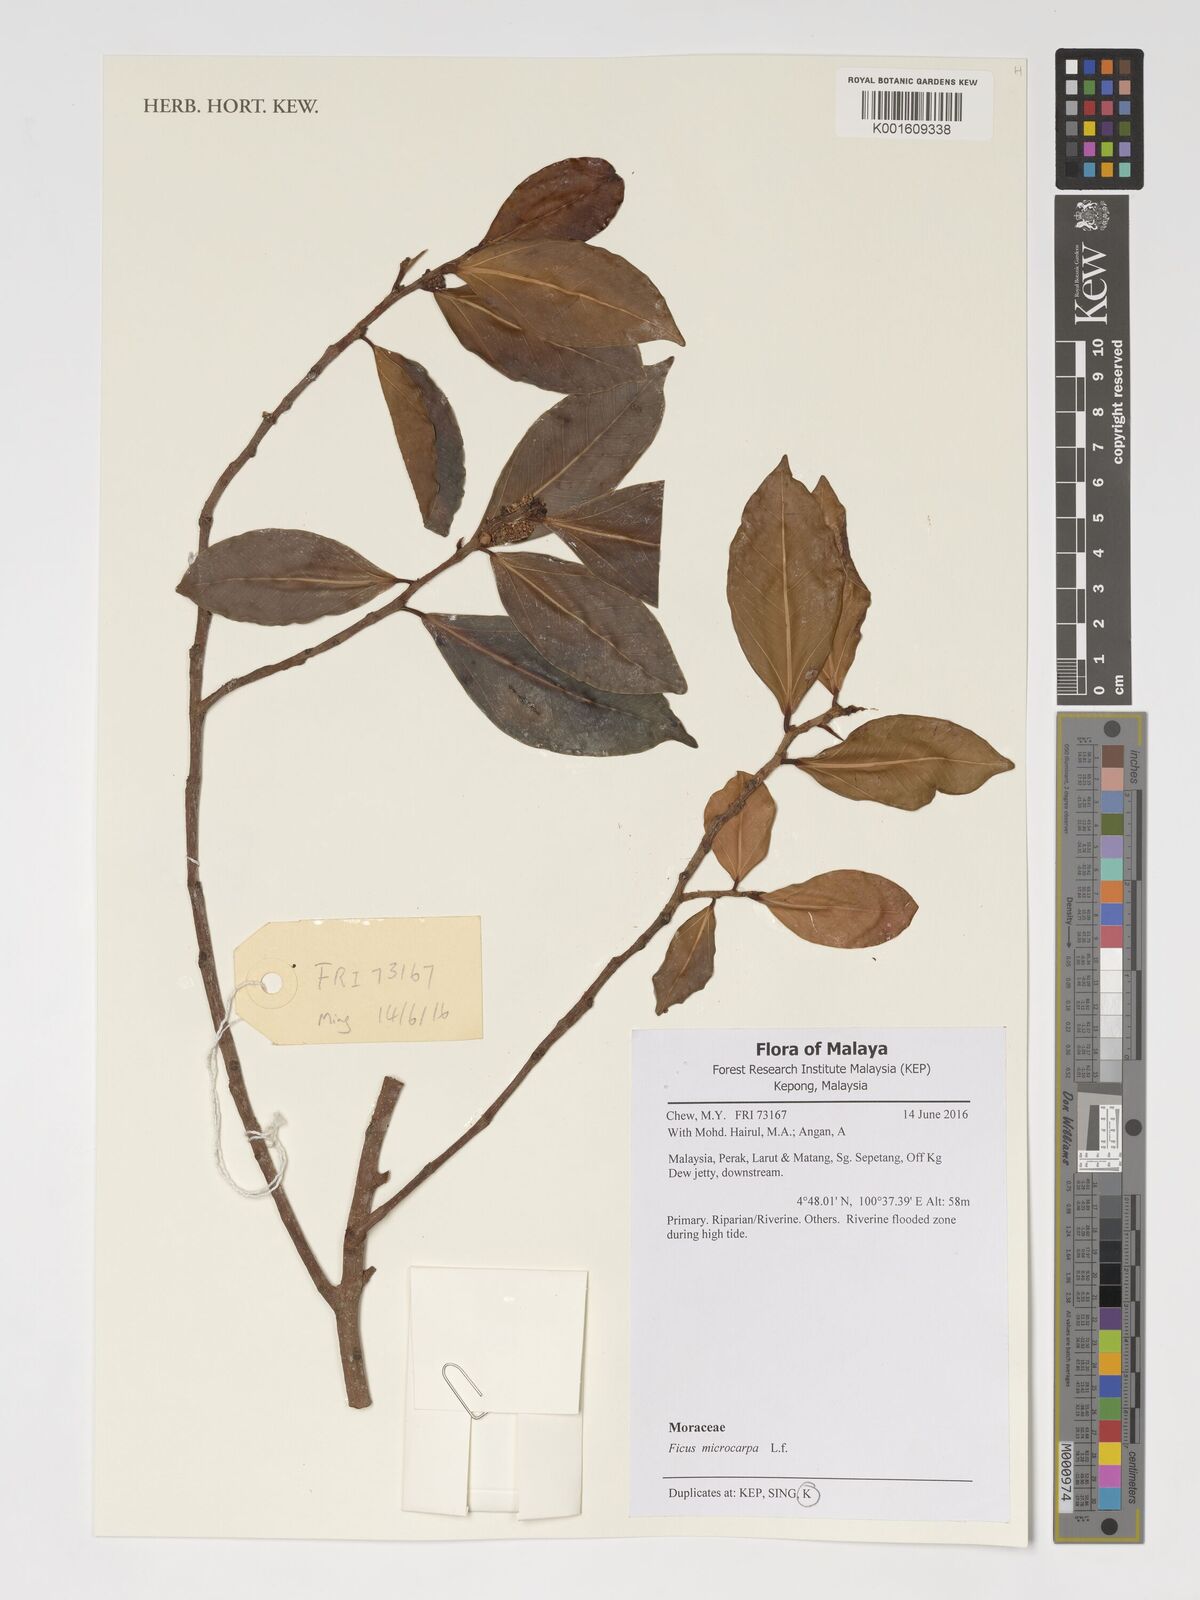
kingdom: Plantae
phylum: Tracheophyta
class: Magnoliopsida
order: Rosales
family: Moraceae
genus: Ficus
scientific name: Ficus microcarpa
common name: Chinese banyan
